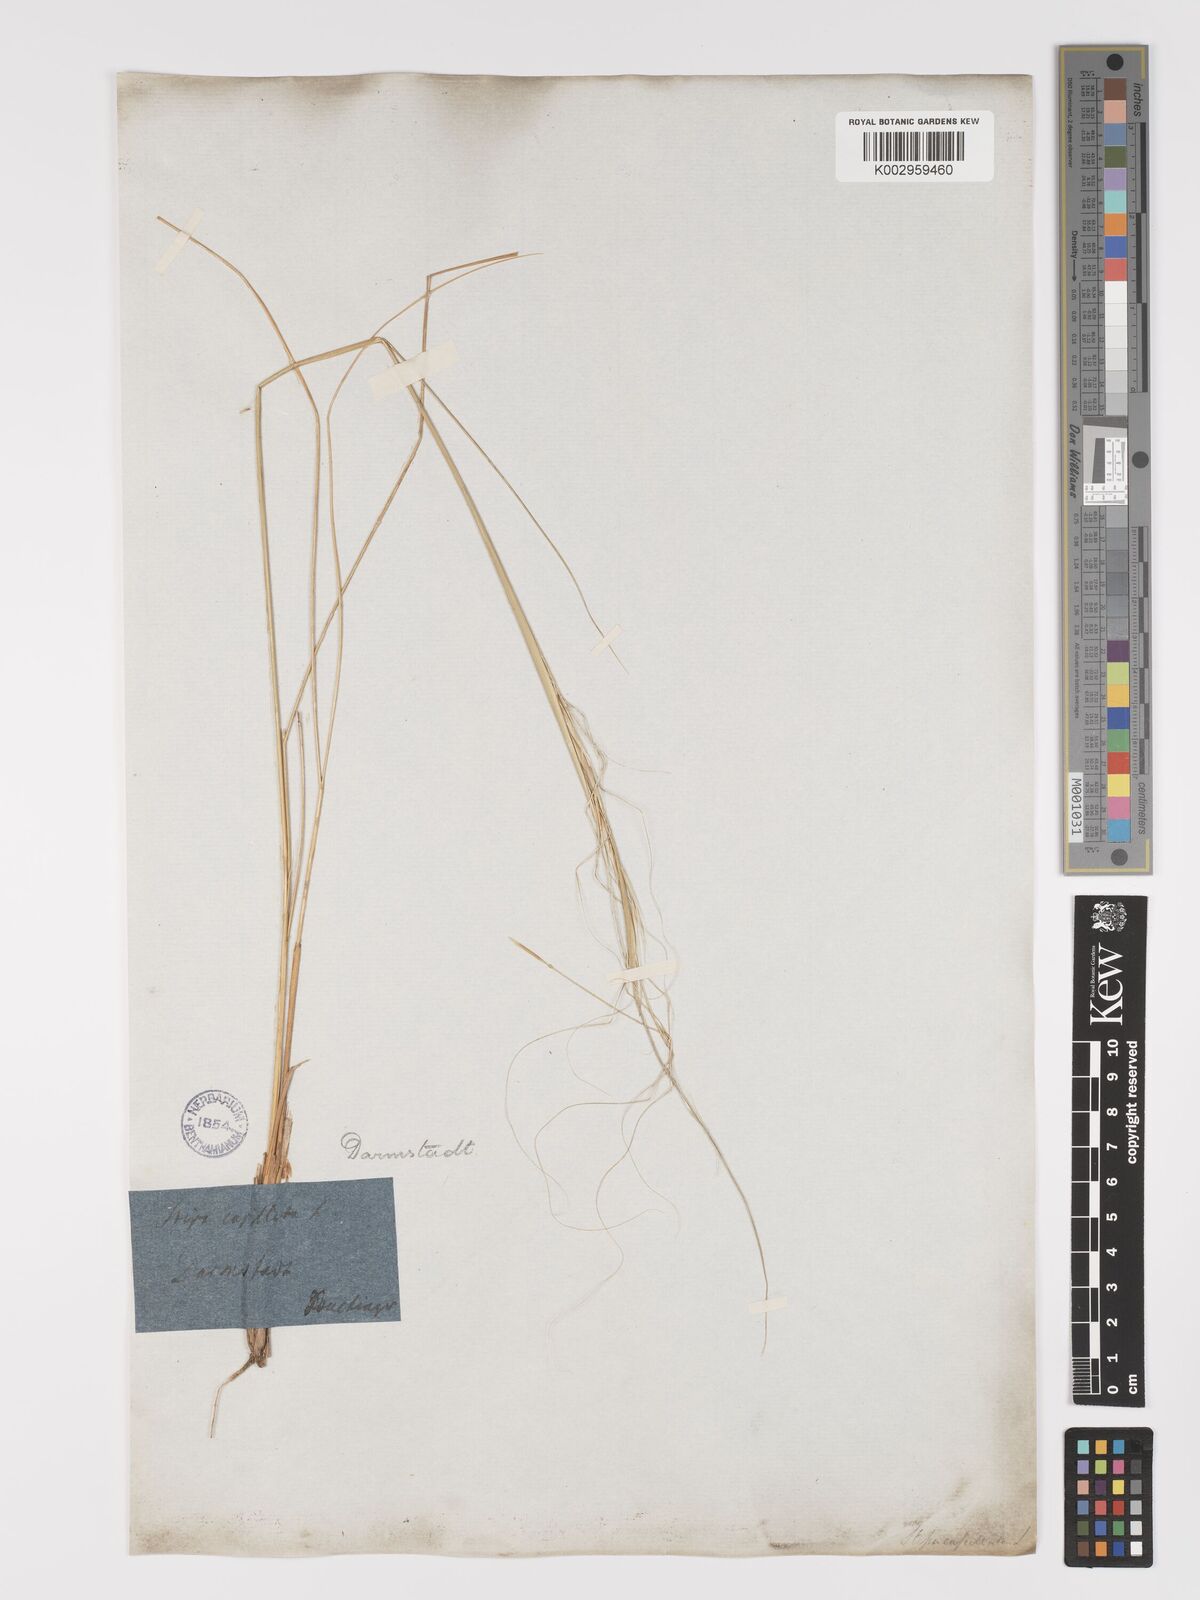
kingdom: Plantae
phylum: Tracheophyta
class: Liliopsida
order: Poales
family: Poaceae
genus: Stipa
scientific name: Stipa capillata
